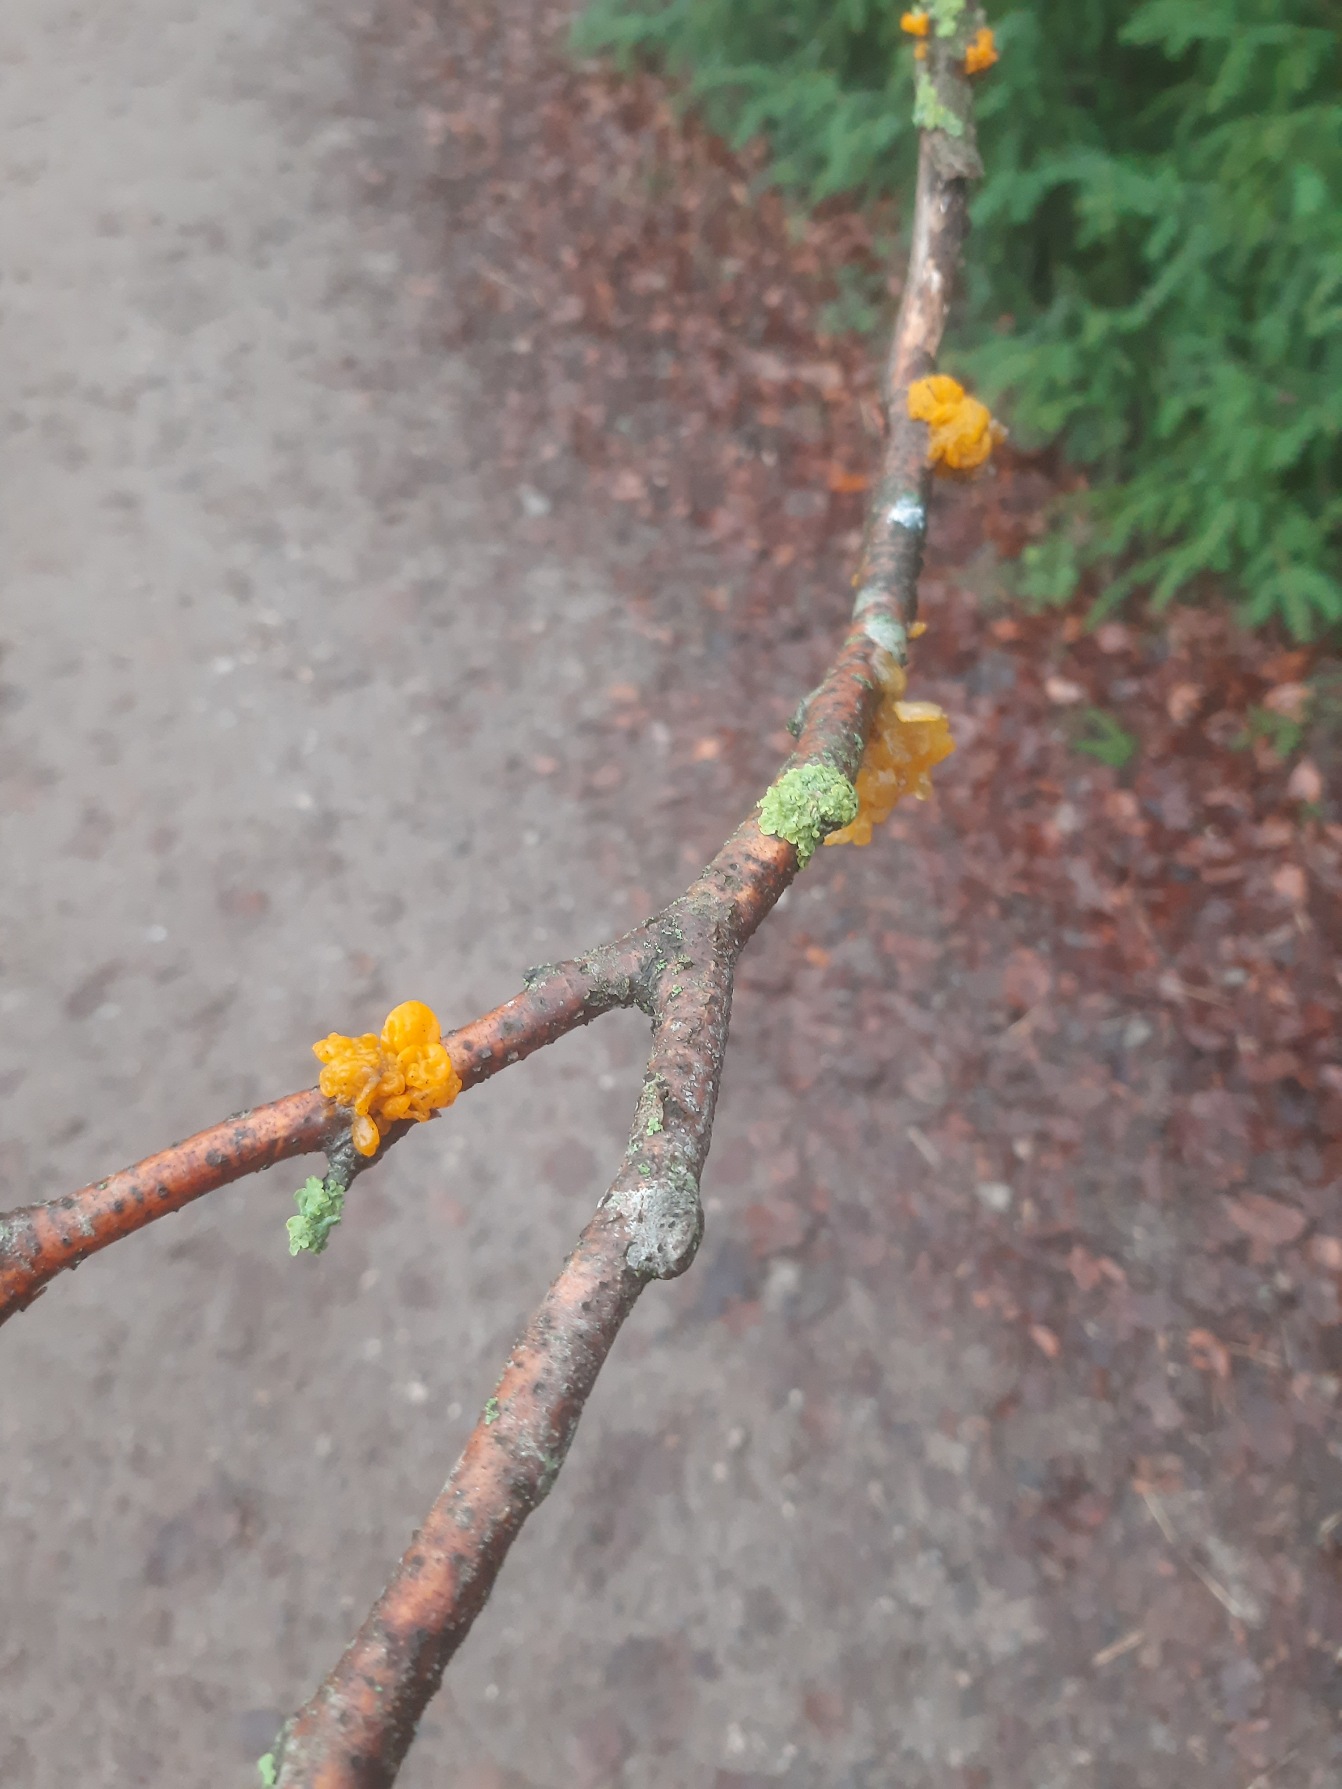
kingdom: Fungi
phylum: Basidiomycota
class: Tremellomycetes
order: Tremellales
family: Tremellaceae
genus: Tremella
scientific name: Tremella mesenterica
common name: Gul bævresvamp
